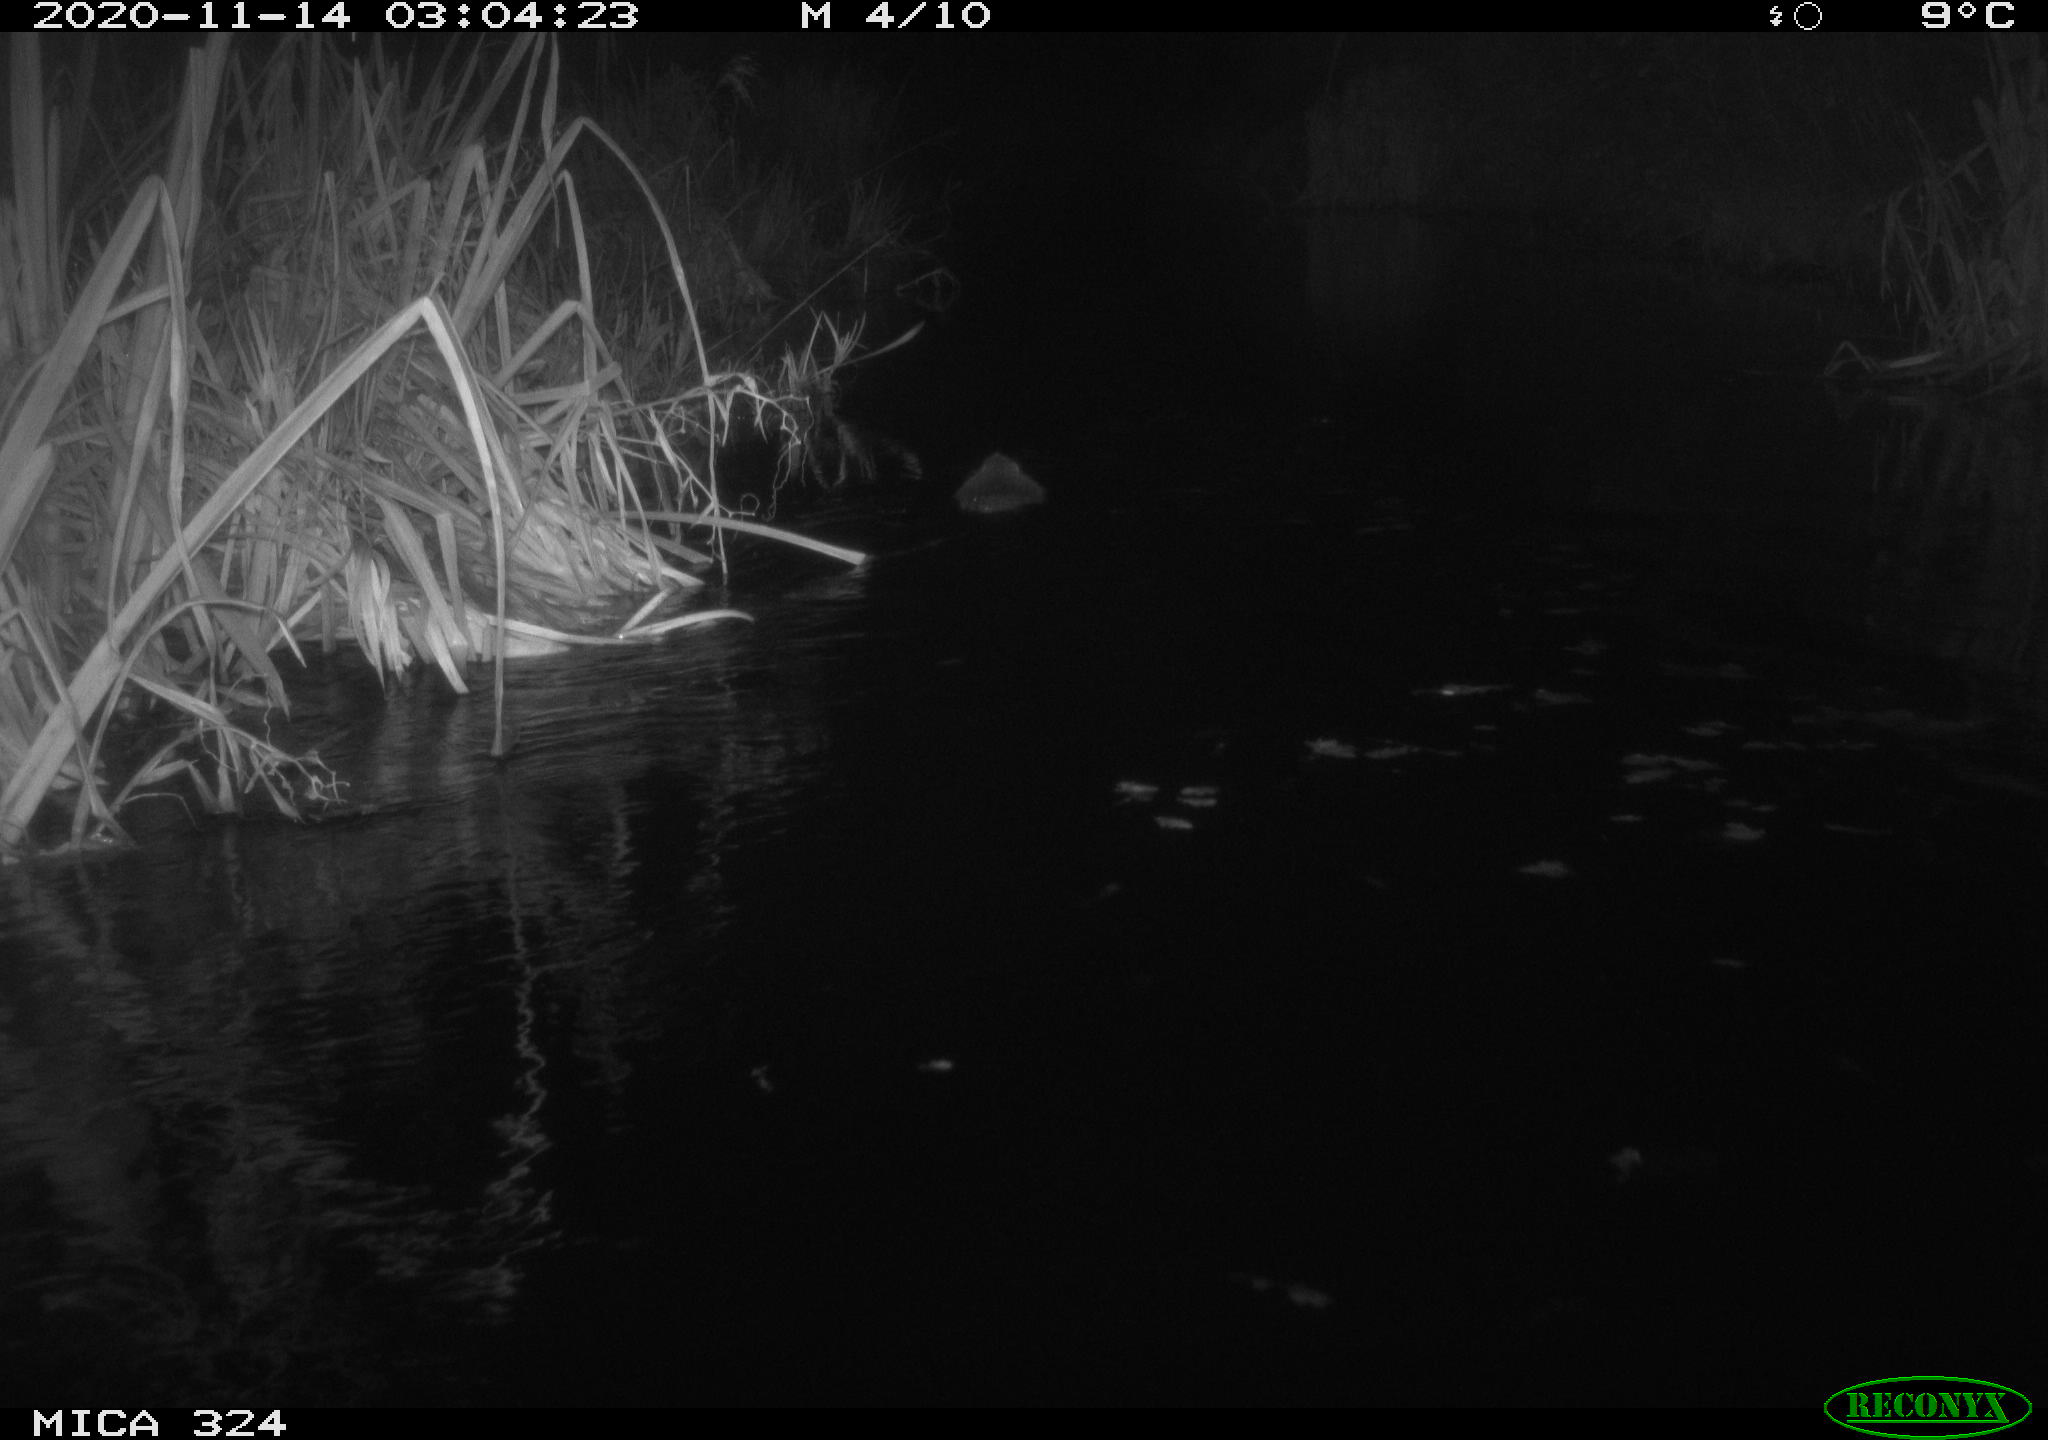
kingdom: Animalia
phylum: Chordata
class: Mammalia
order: Rodentia
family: Myocastoridae
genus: Myocastor
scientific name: Myocastor coypus
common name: Coypu
